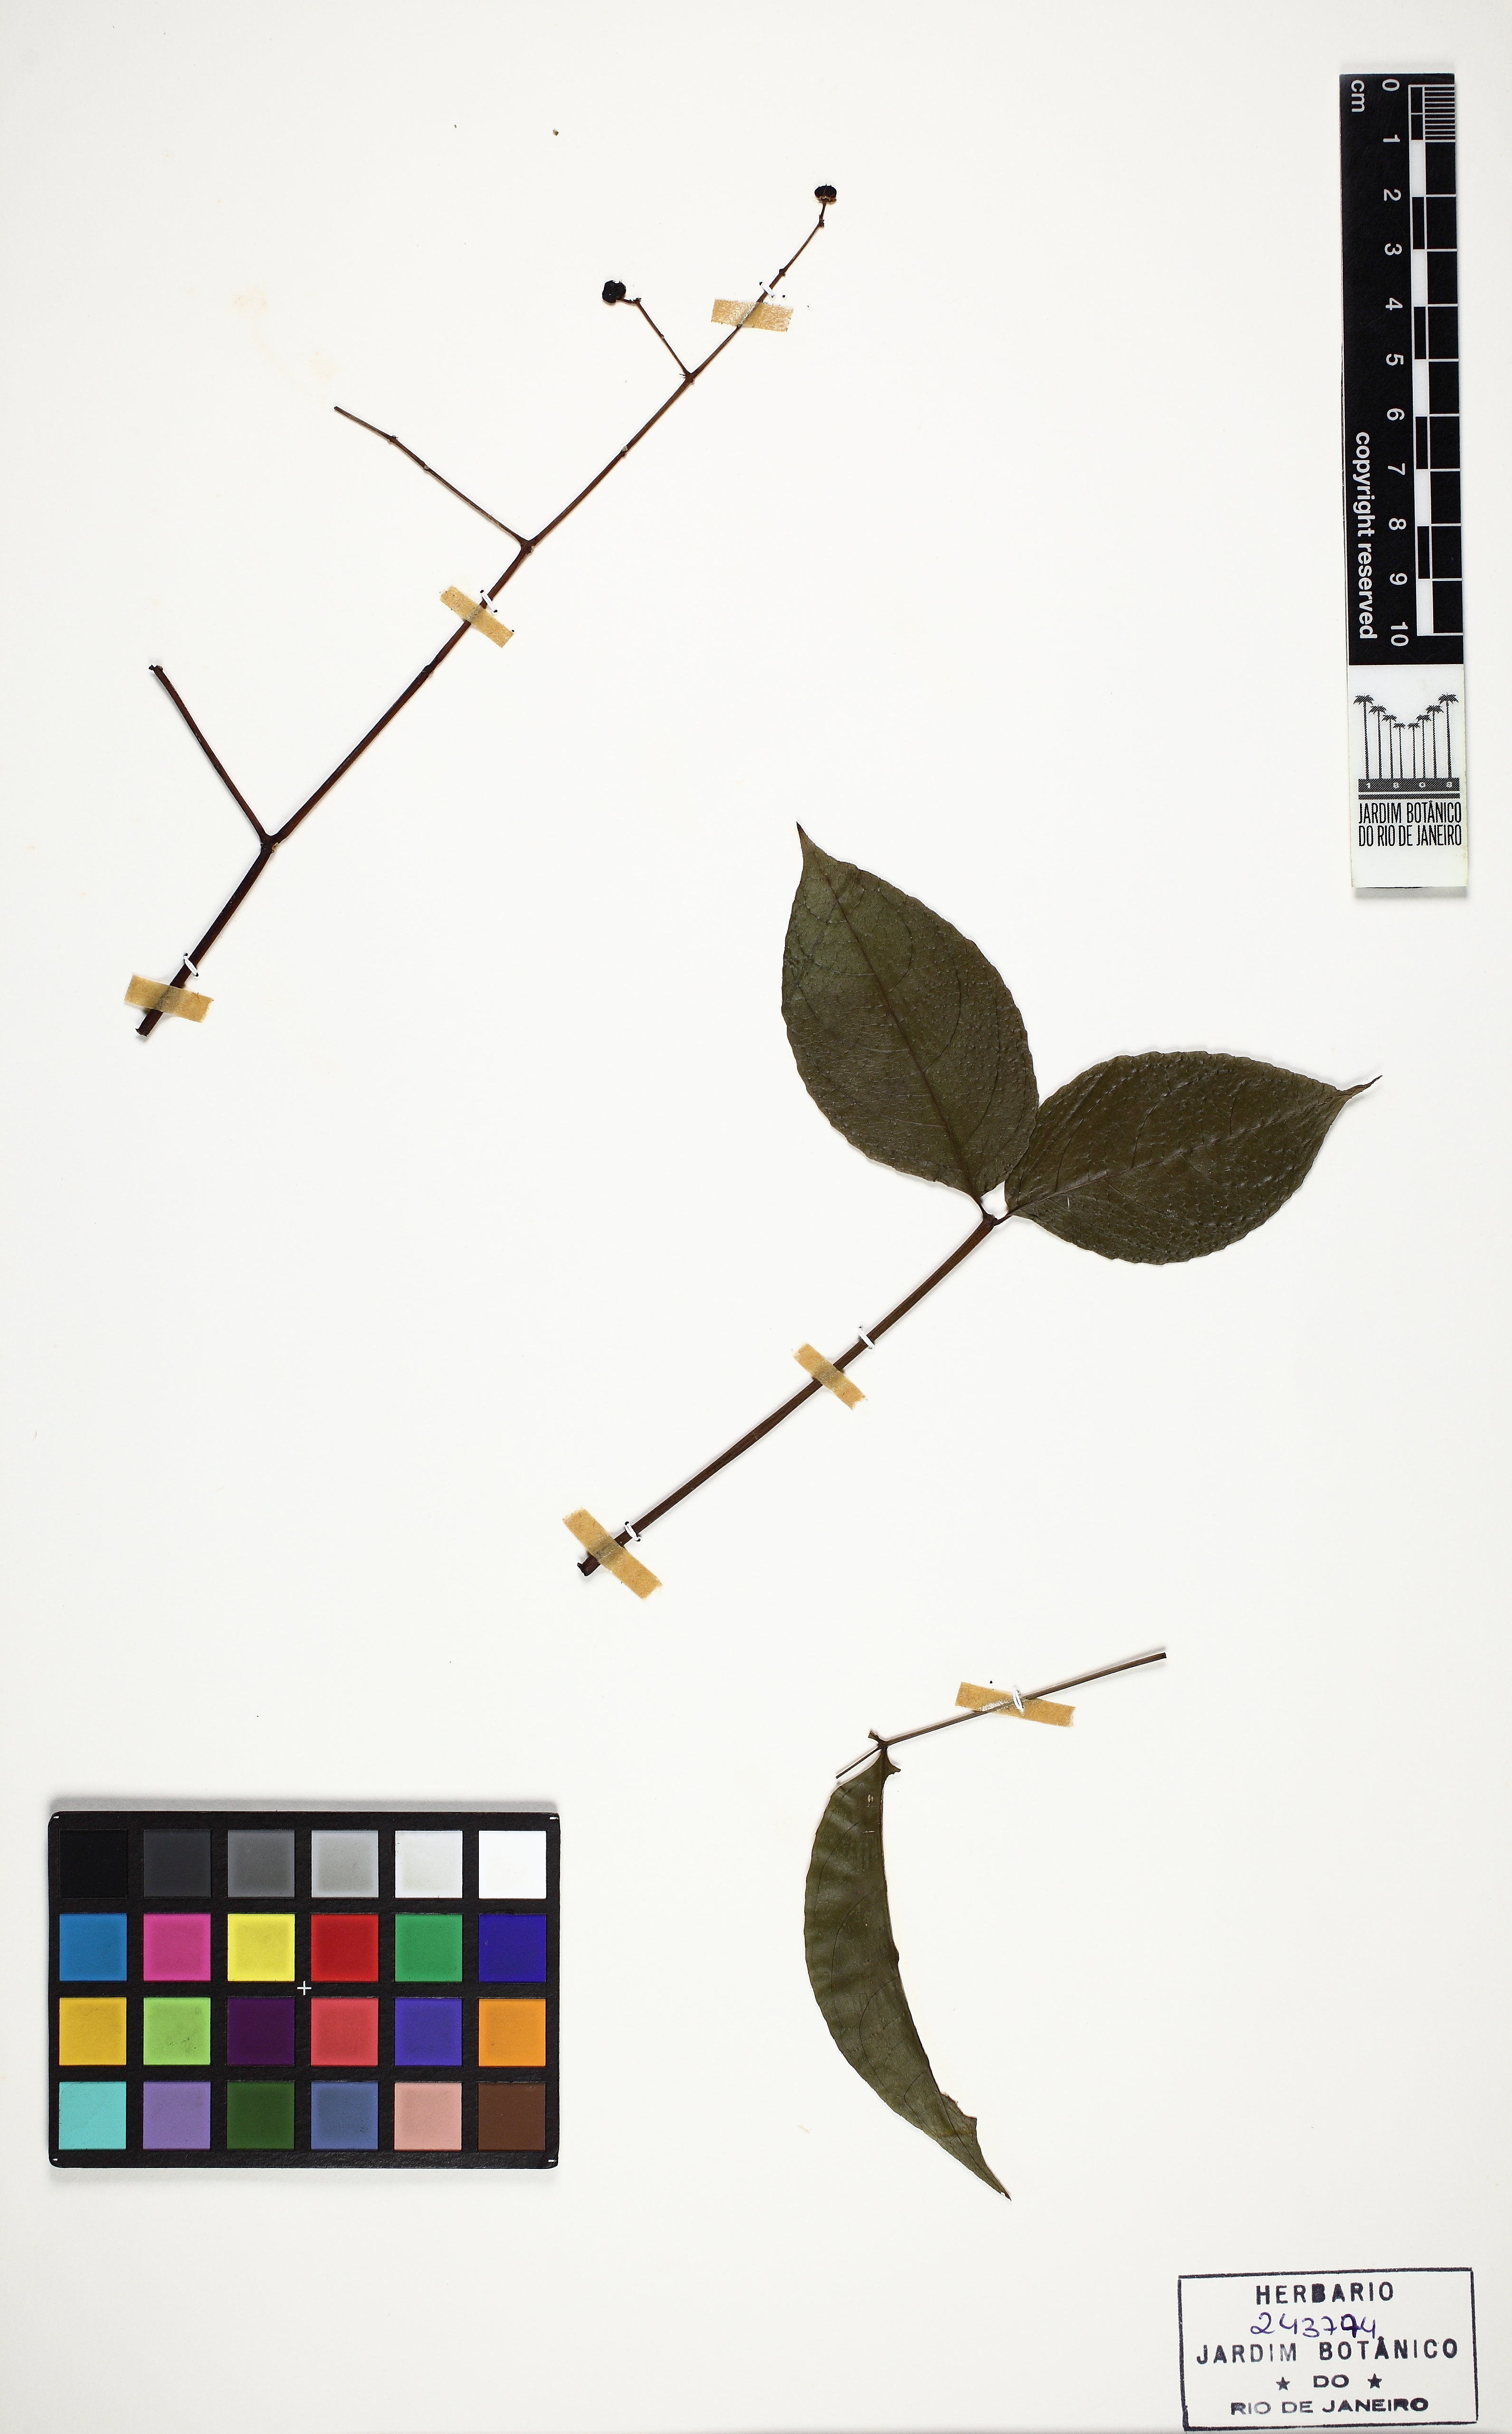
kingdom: Plantae
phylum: Tracheophyta
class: Magnoliopsida
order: Crossosomatales
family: Staphyleaceae
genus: Turpinia
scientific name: Turpinia occidentalis
